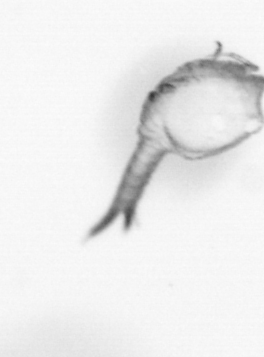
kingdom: Animalia
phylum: Arthropoda
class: Copepoda
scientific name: Copepoda
